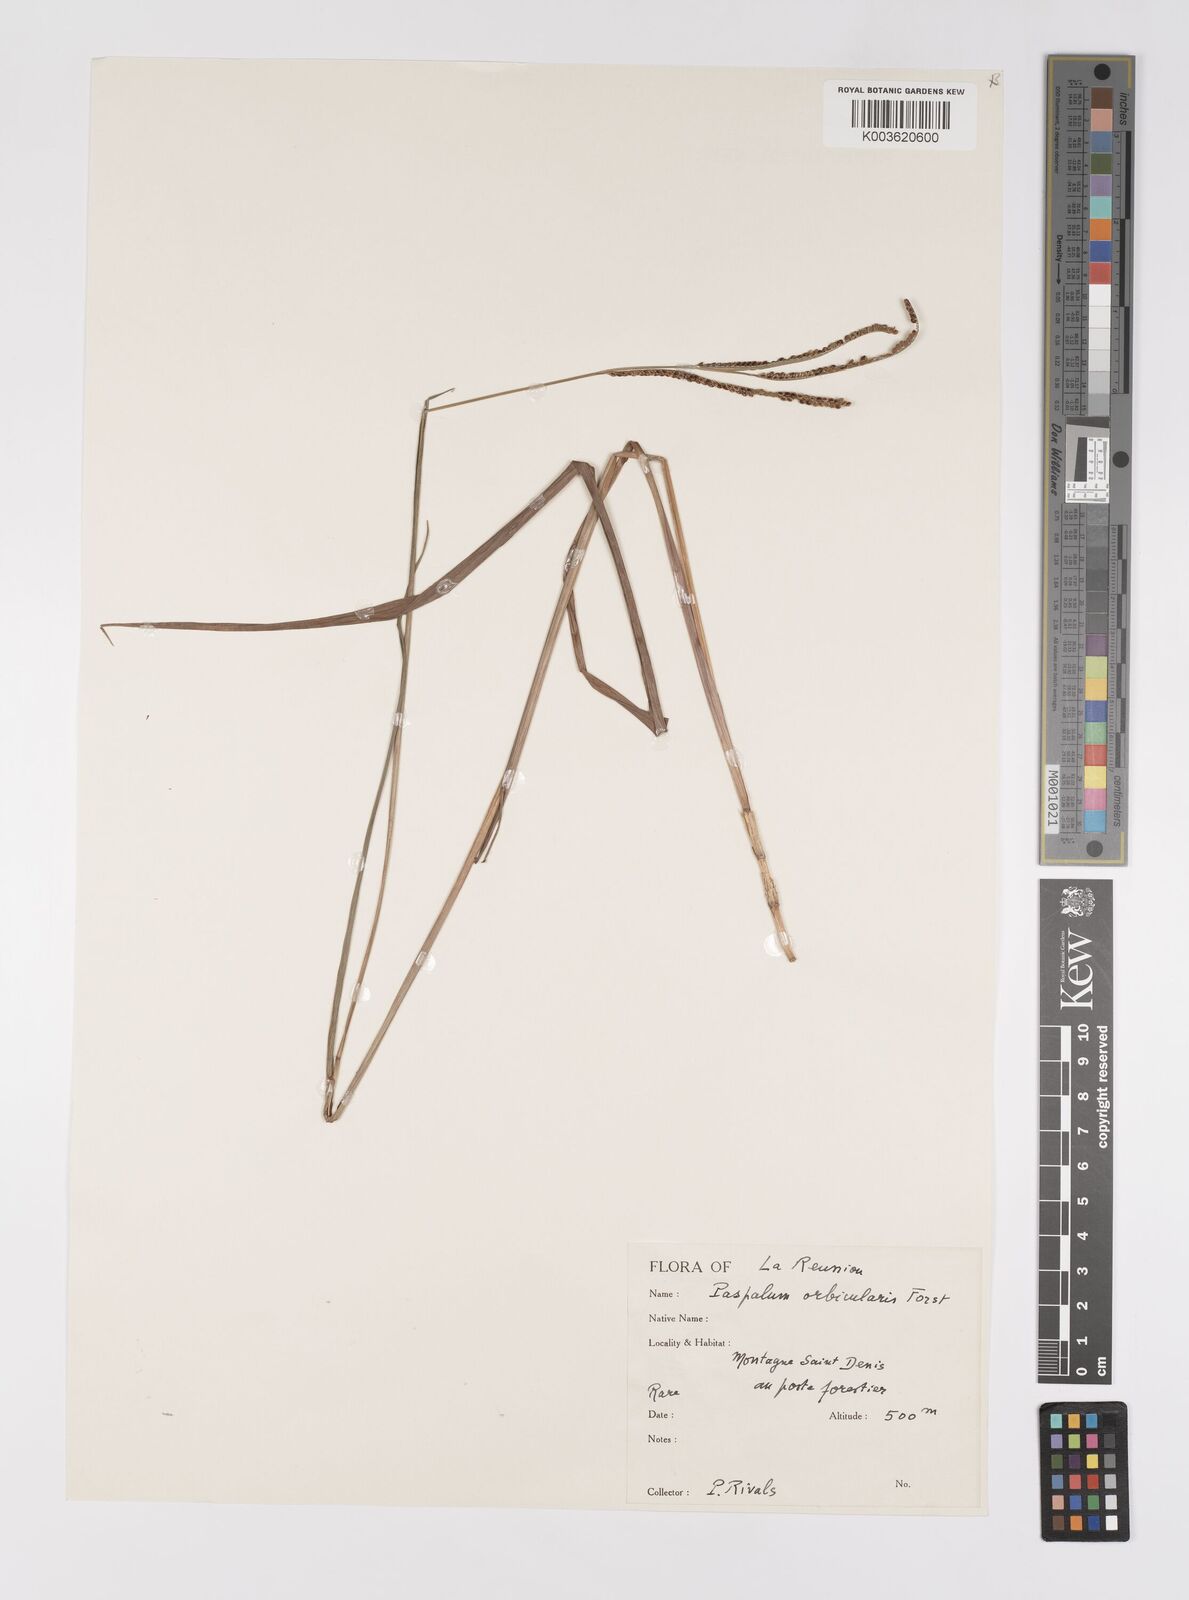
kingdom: Plantae
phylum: Tracheophyta
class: Liliopsida
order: Poales
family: Poaceae
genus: Paspalum
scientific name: Paspalum scrobiculatum
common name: Kodo millet
